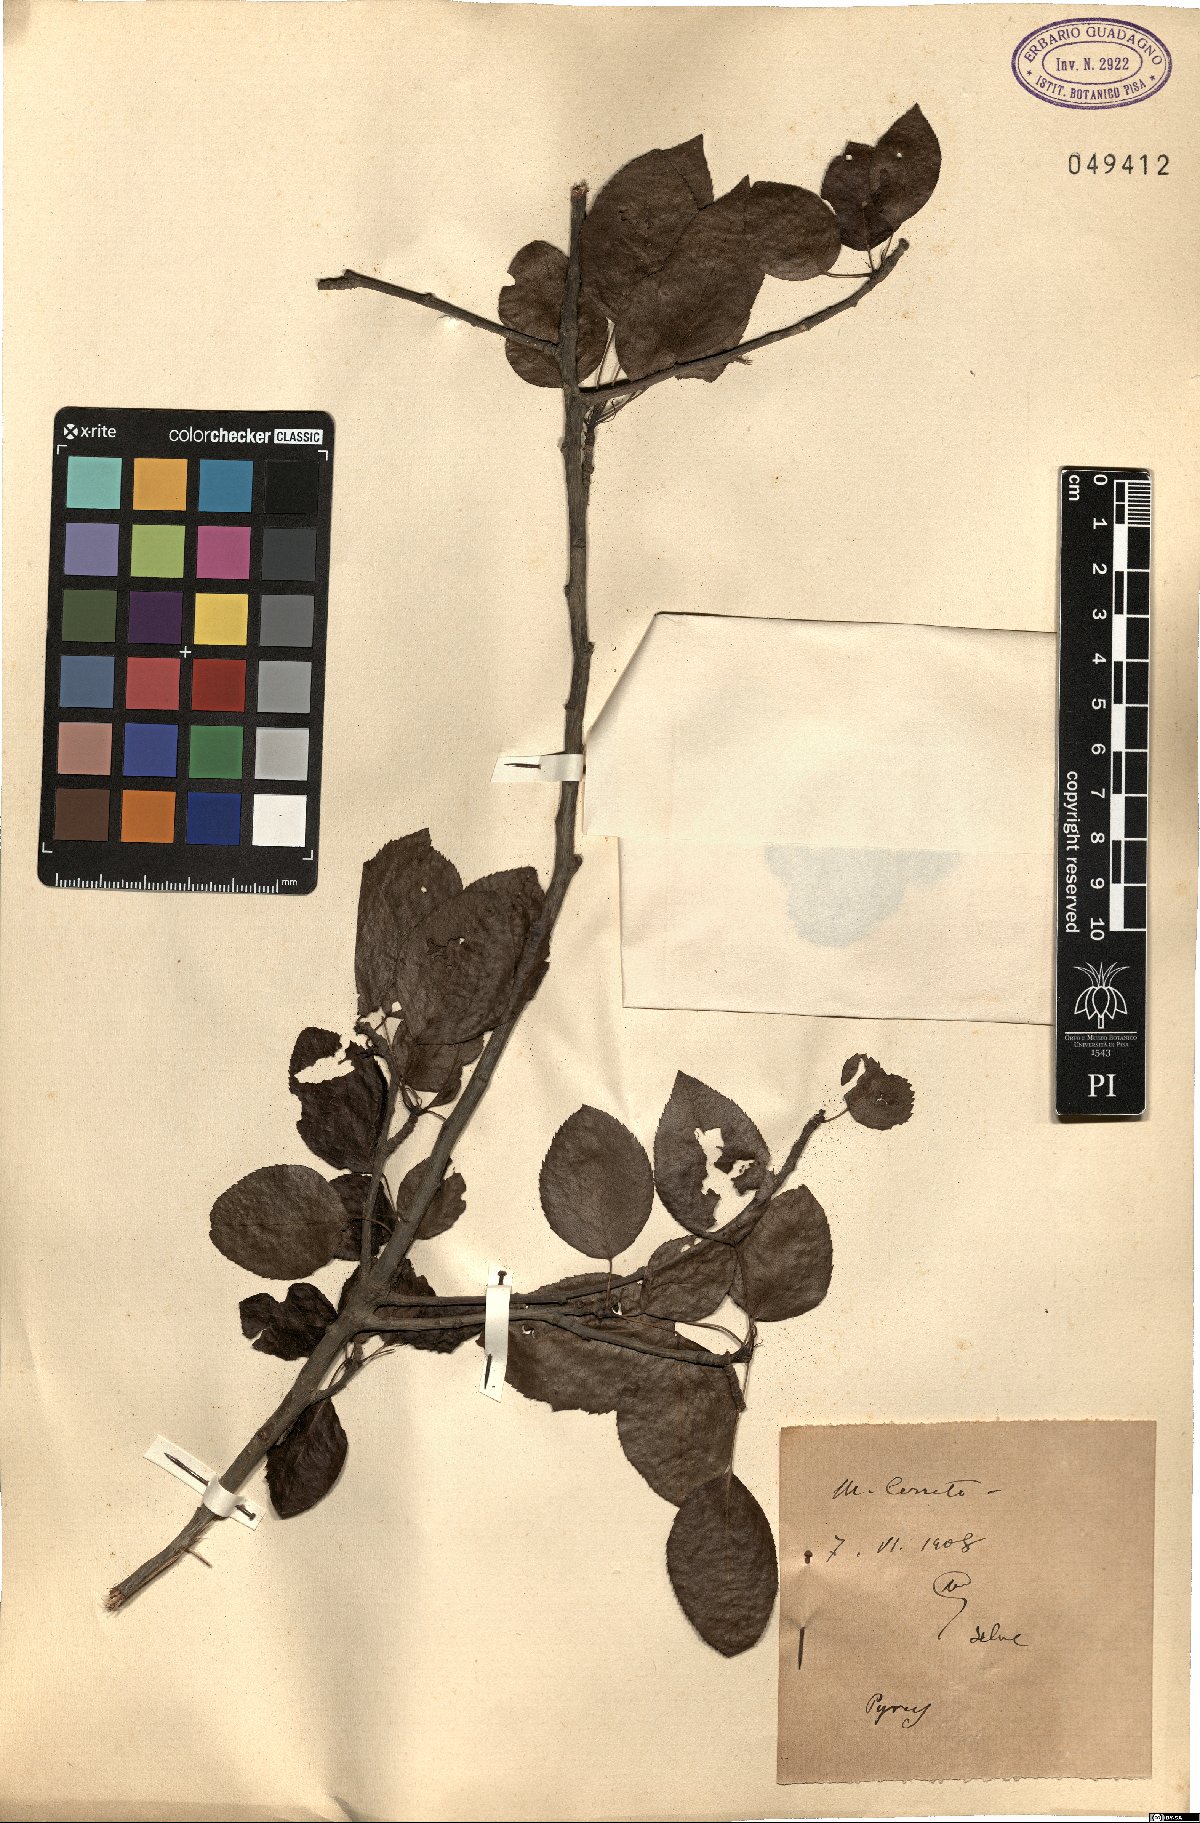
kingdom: Plantae
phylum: Tracheophyta
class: Magnoliopsida
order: Rosales
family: Rosaceae
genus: Pyrus
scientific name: Pyrus
